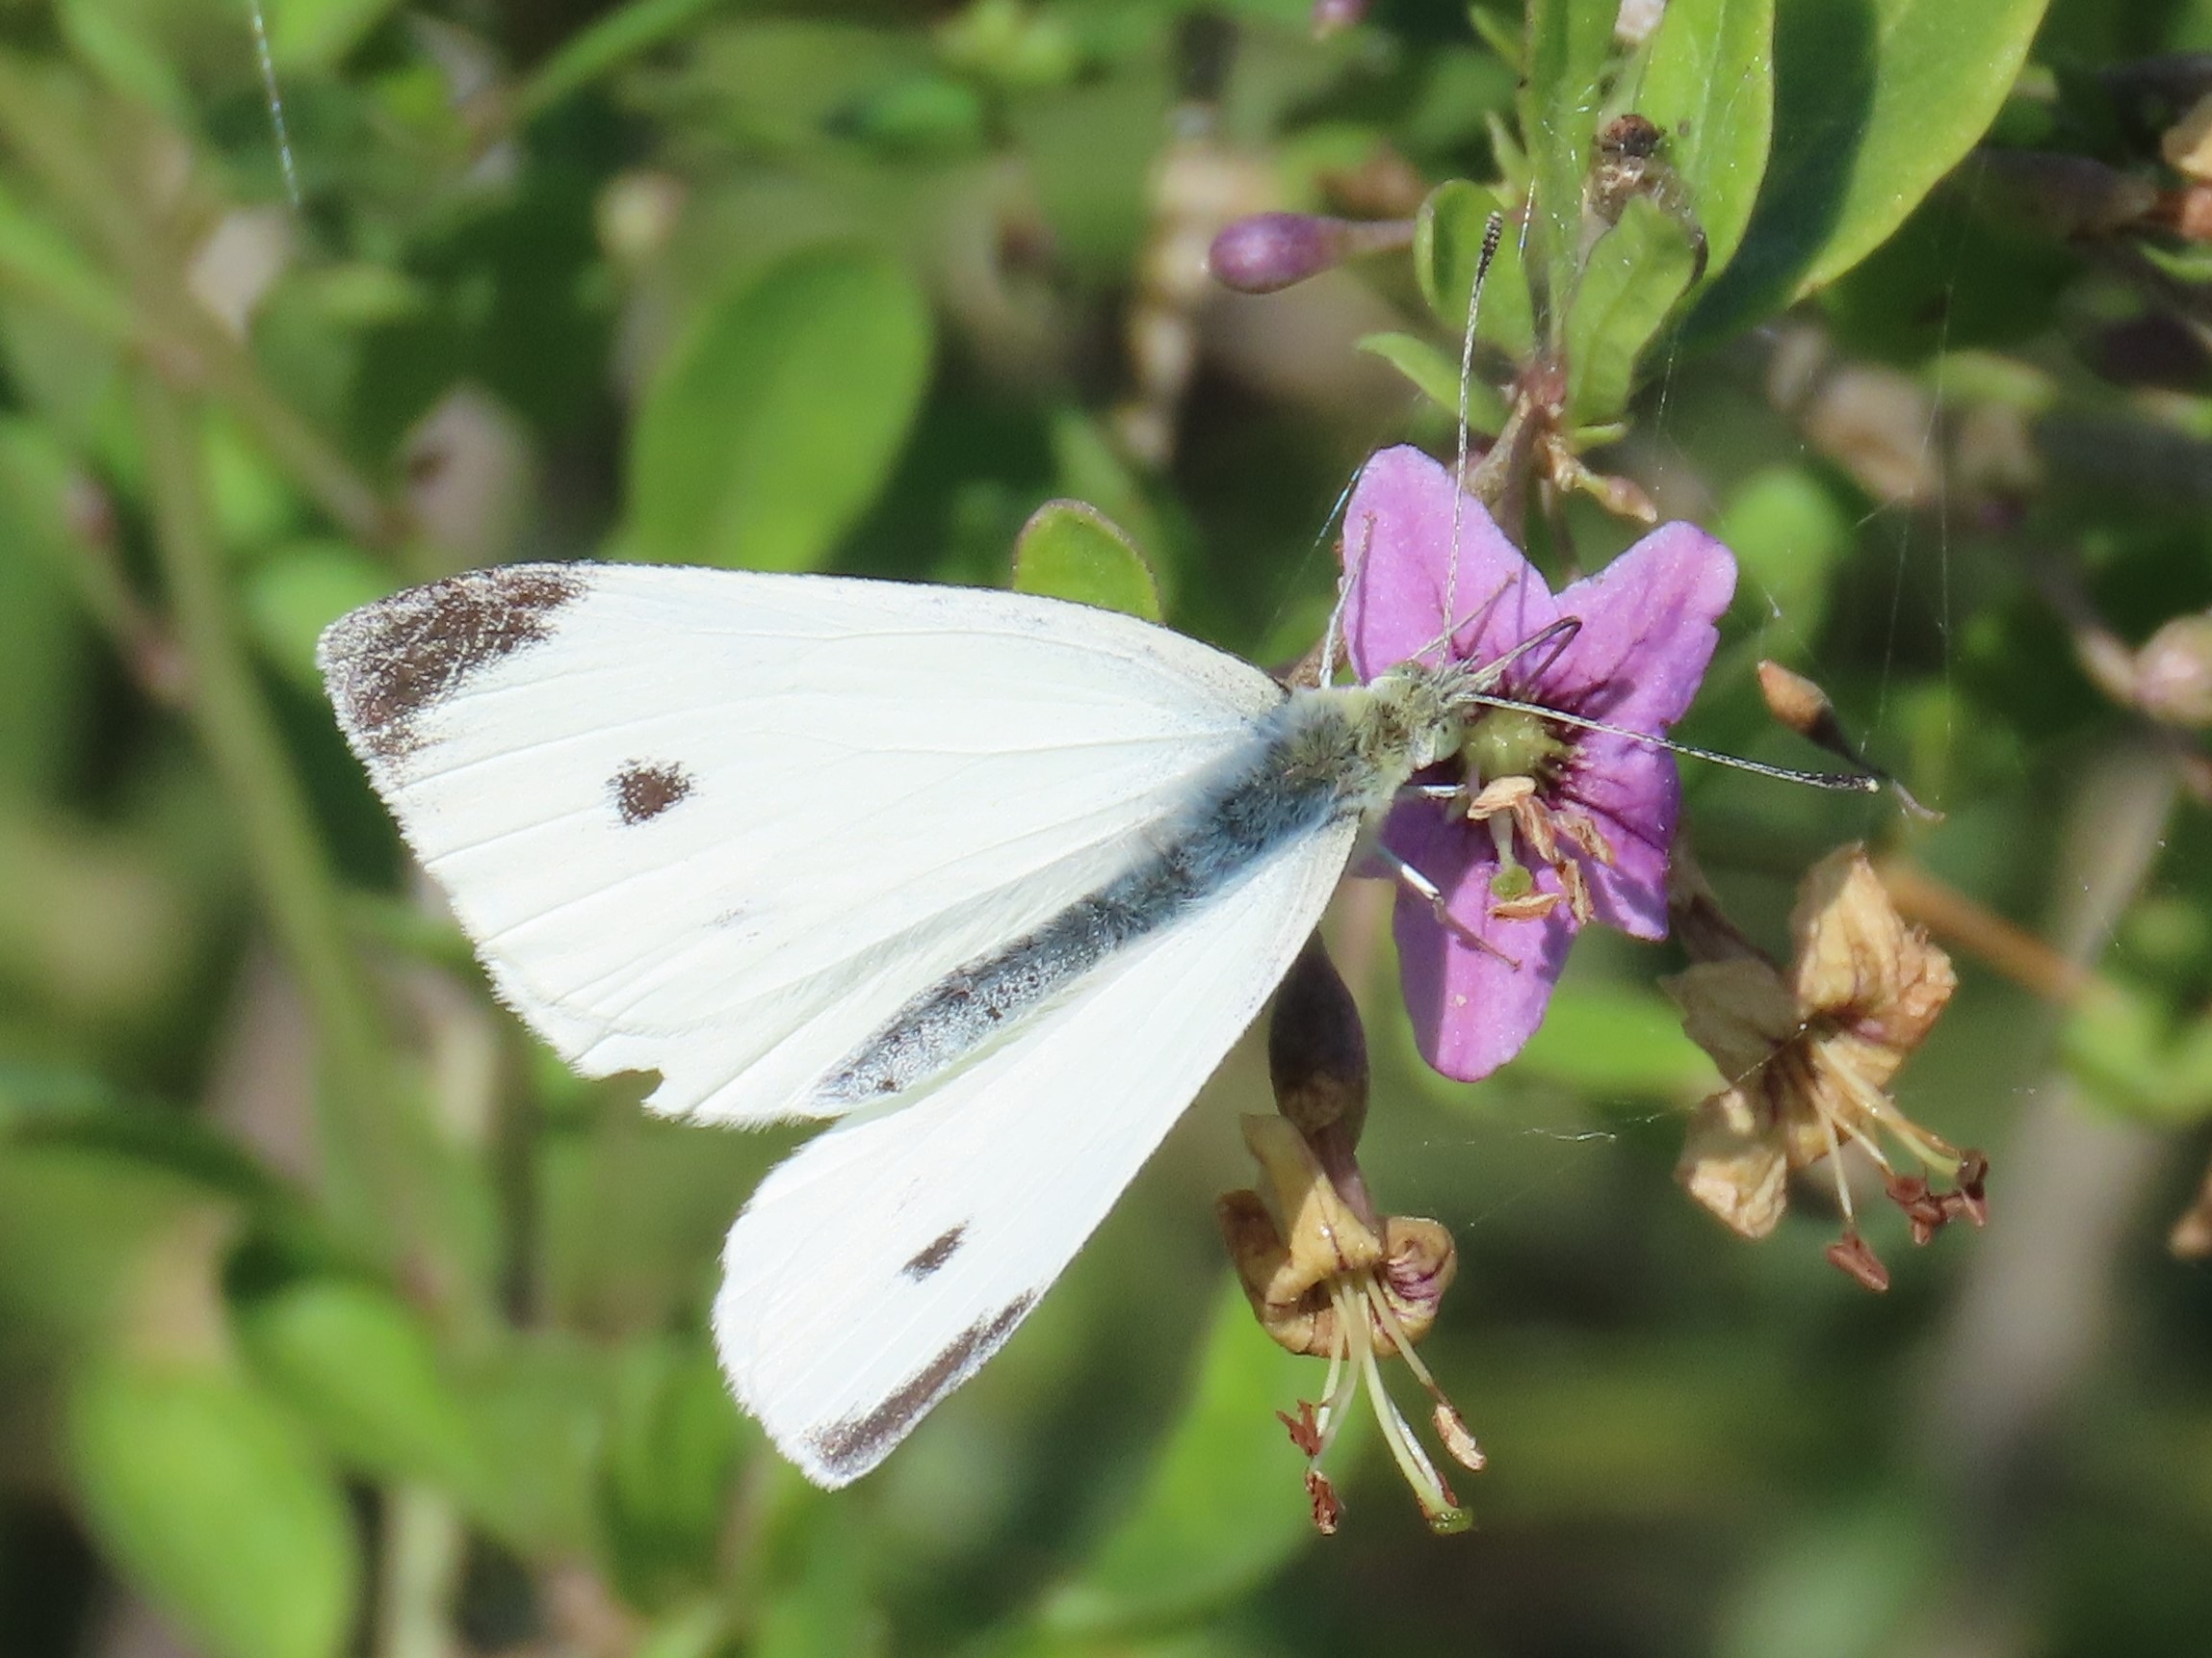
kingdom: Animalia
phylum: Arthropoda
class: Insecta
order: Lepidoptera
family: Pieridae
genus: Pieris
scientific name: Pieris rapae
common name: Lille kålsommerfugl
